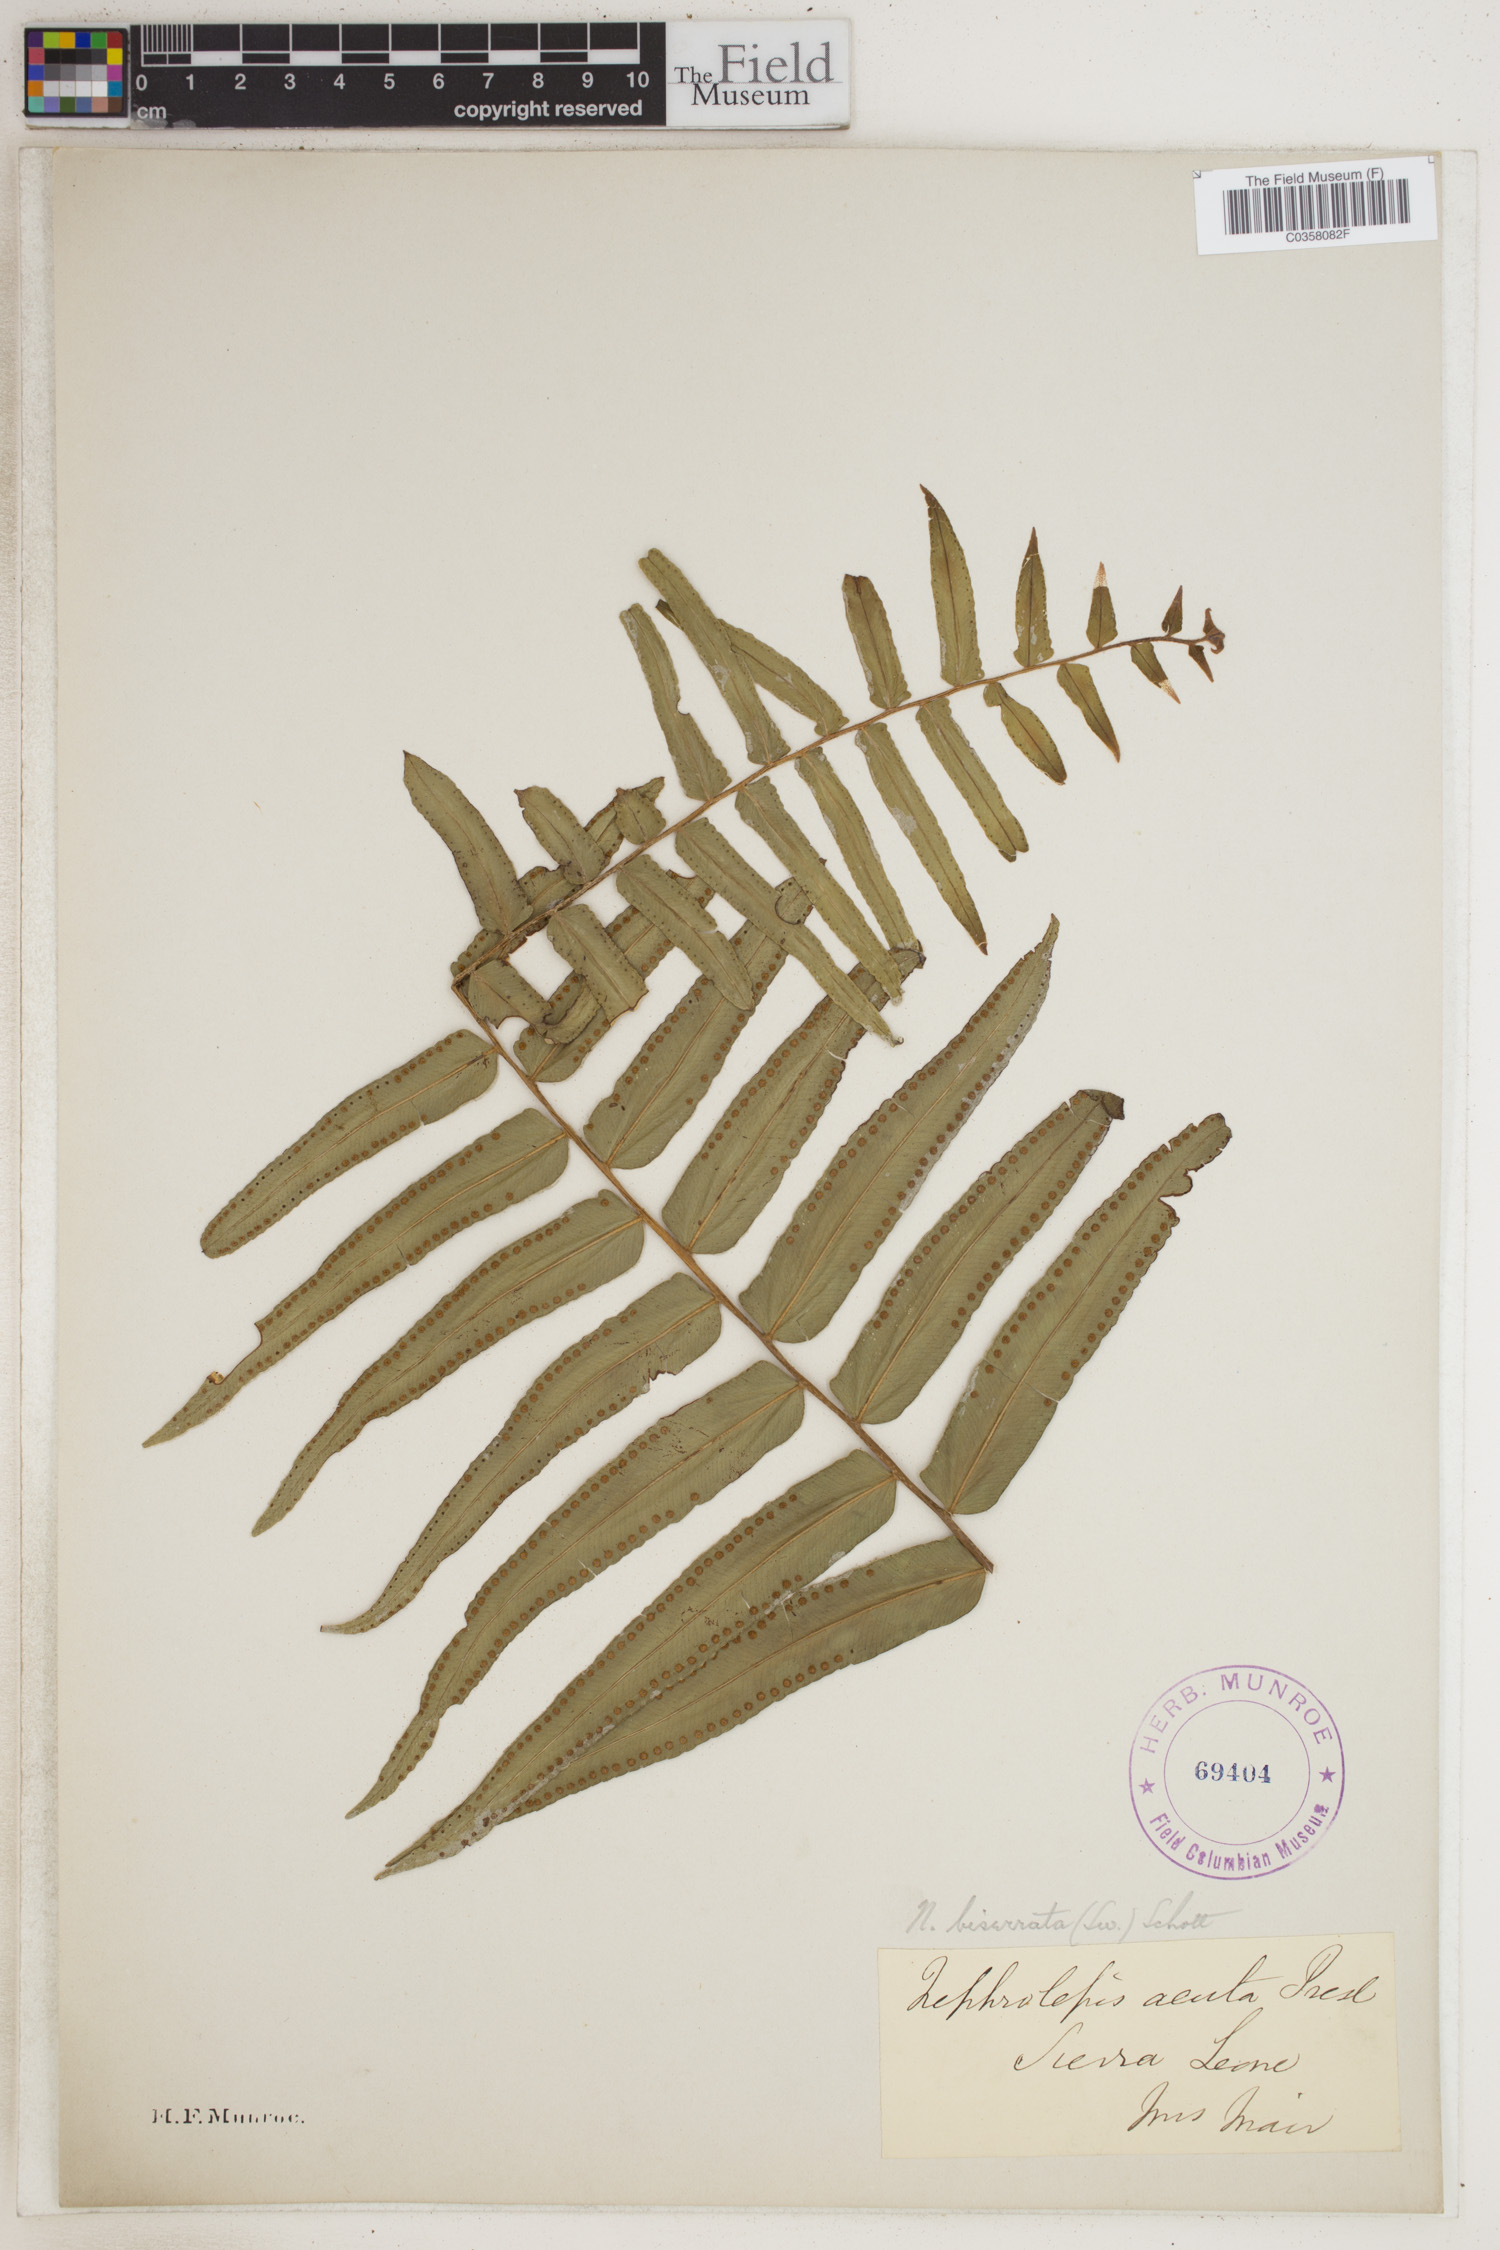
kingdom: Plantae
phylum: Tracheophyta
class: Polypodiopsida
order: Polypodiales
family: Nephrolepidaceae
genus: Nephrolepis
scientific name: Nephrolepis biserrata
